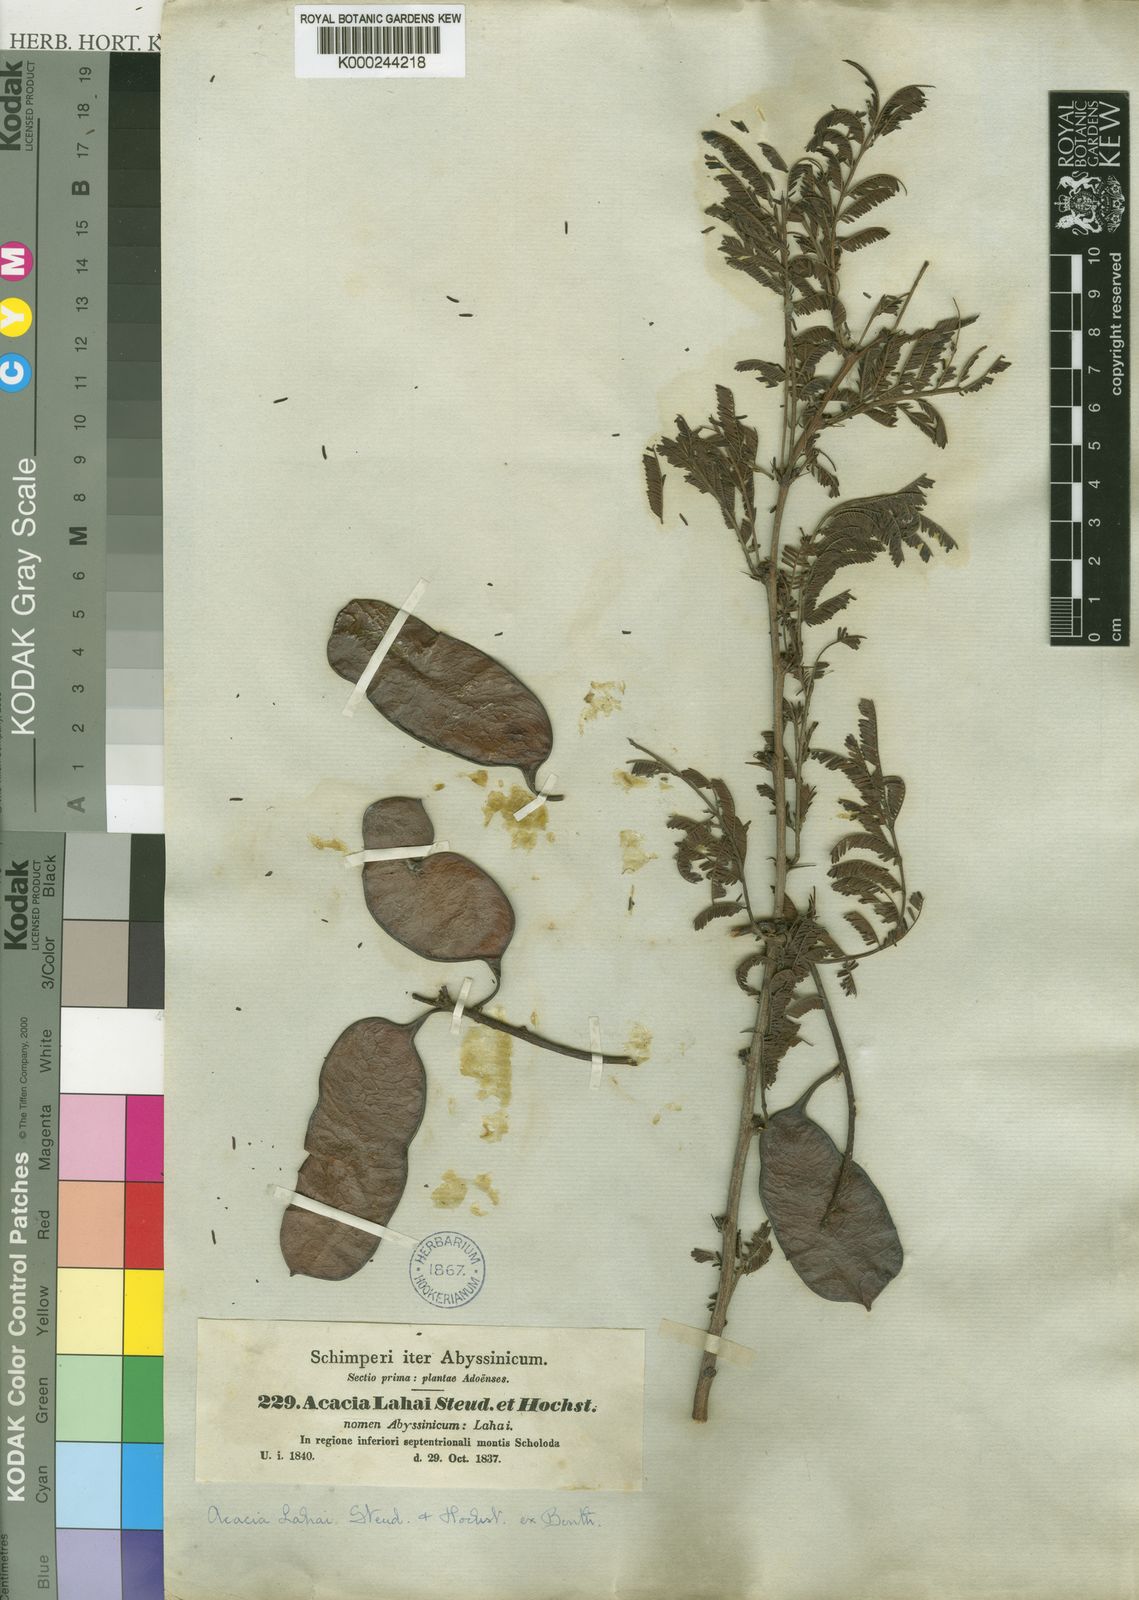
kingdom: Plantae
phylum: Tracheophyta
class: Magnoliopsida
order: Fabales
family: Fabaceae
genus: Vachellia
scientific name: Vachellia lahai
